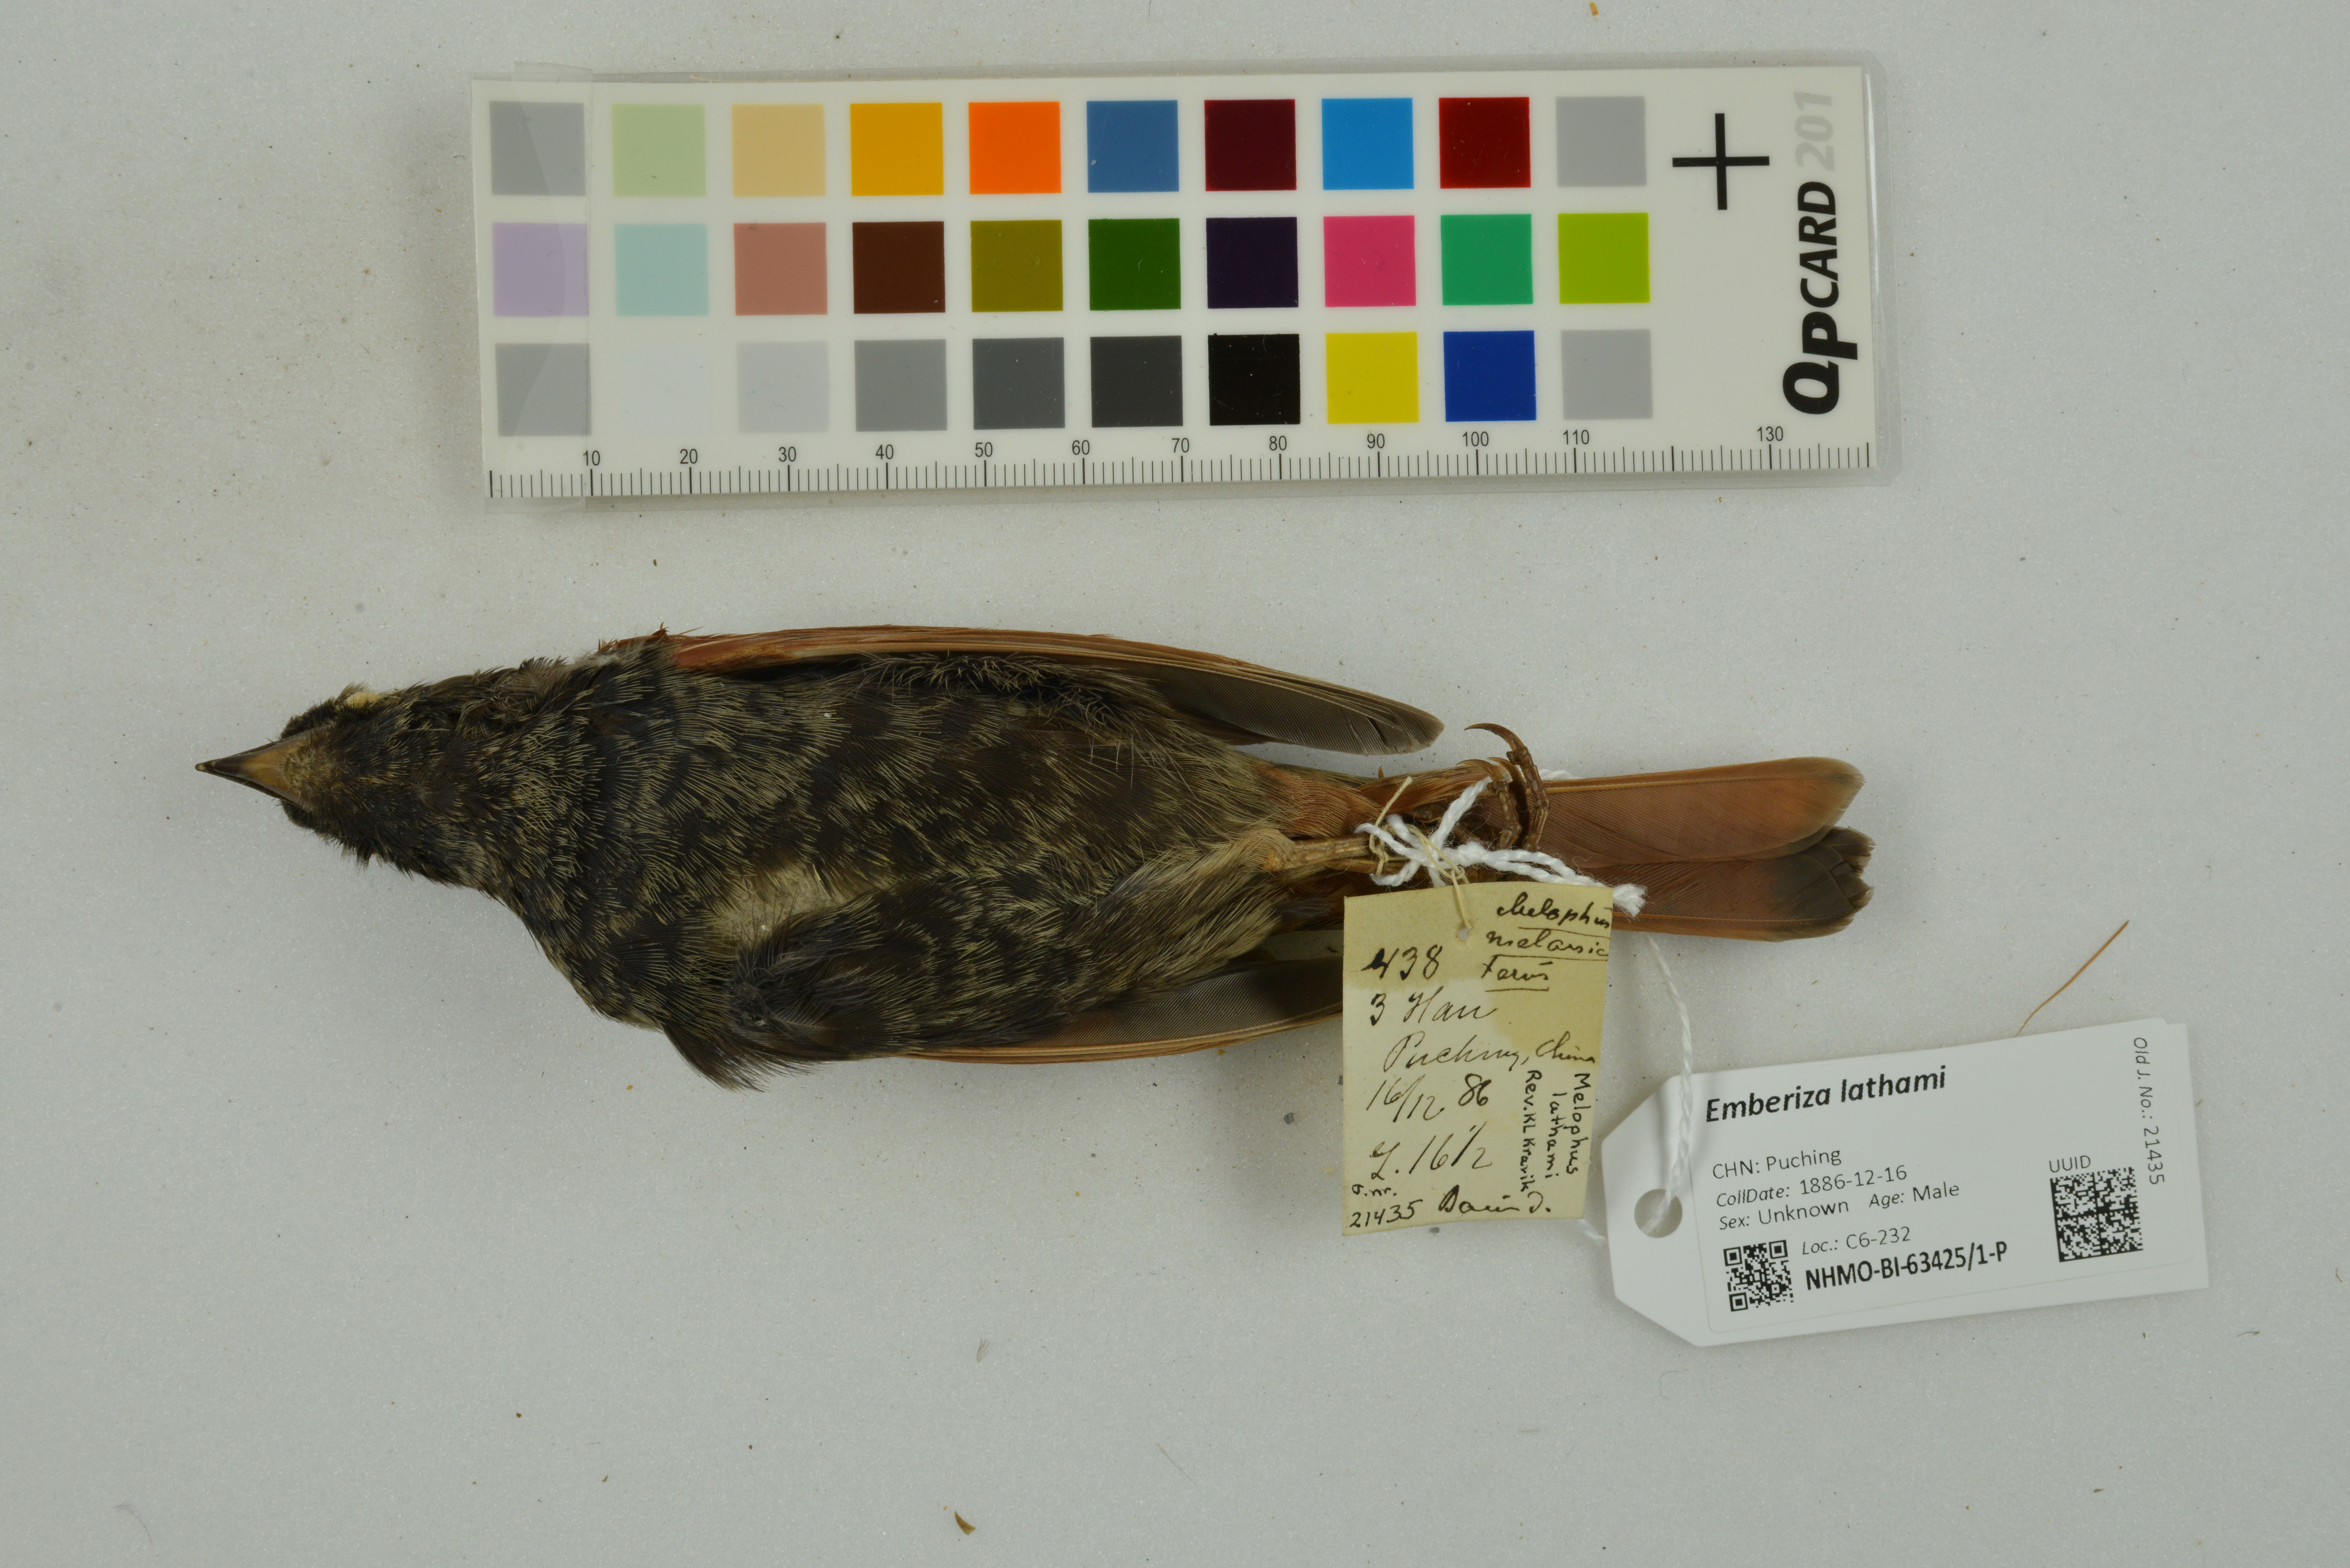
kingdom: Animalia
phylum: Chordata
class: Aves
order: Passeriformes
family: Emberizidae
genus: Emberiza
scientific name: Emberiza lathami
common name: Crested bunting
